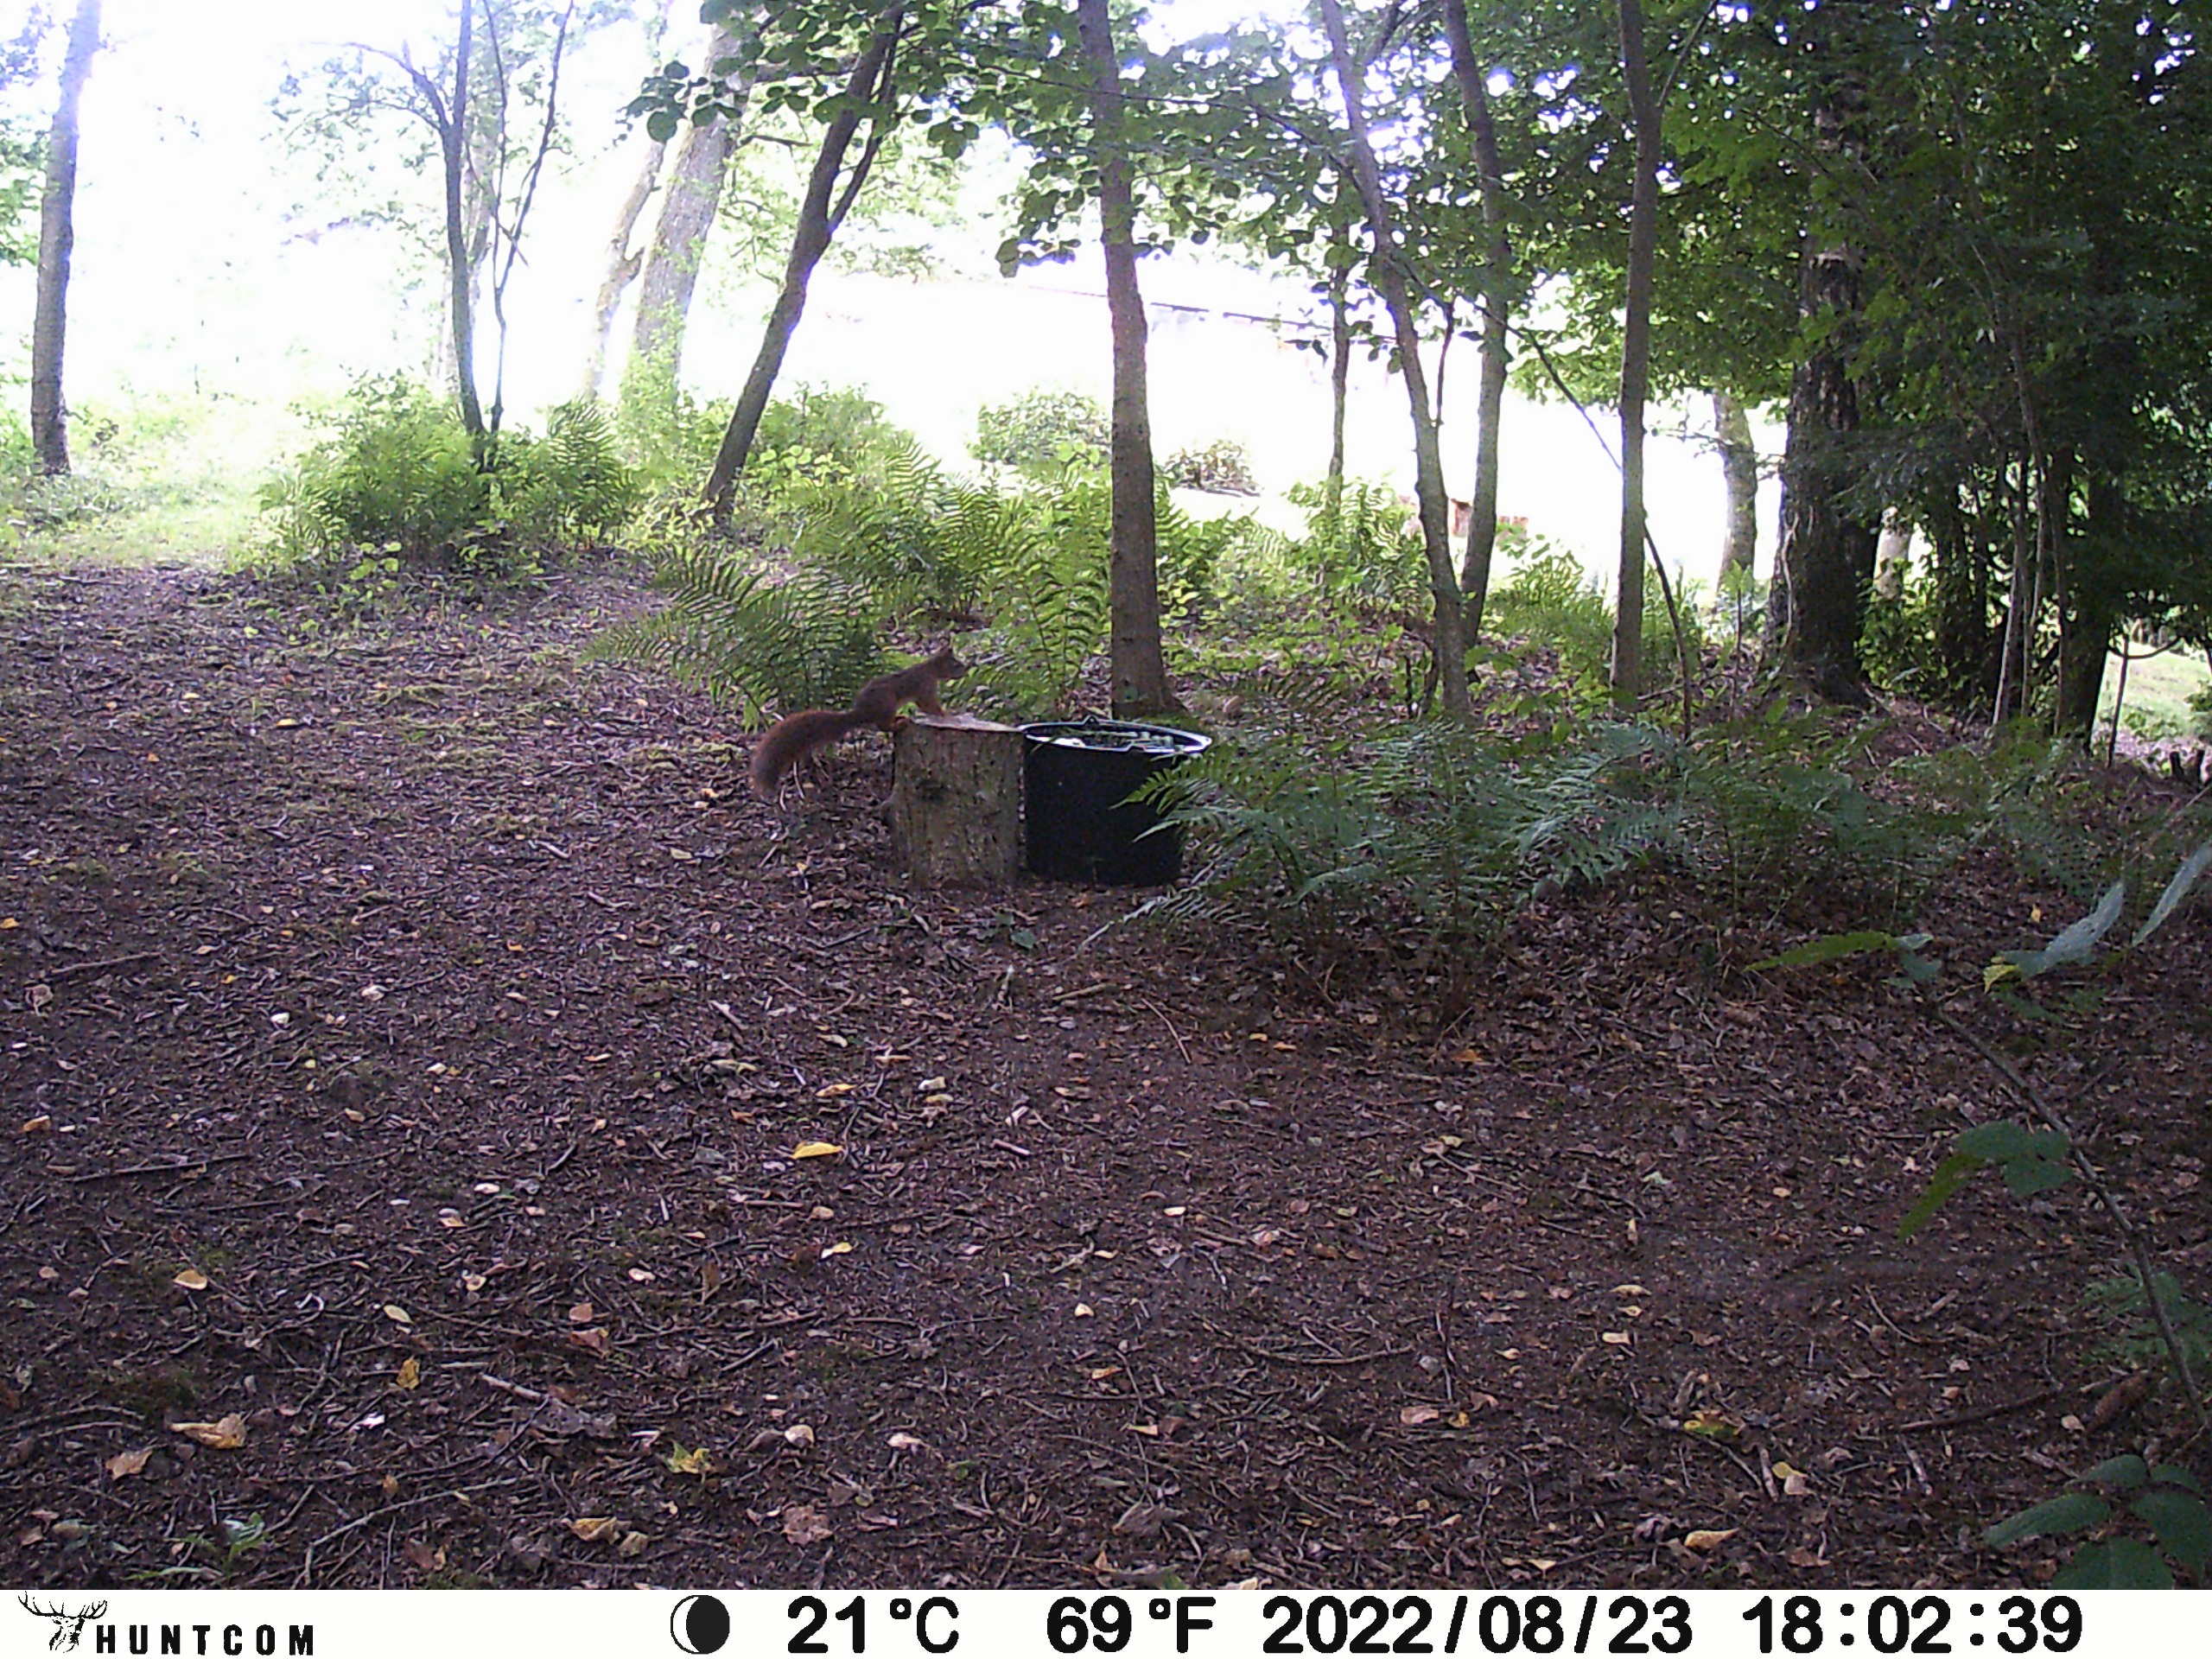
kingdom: Animalia
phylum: Chordata
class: Mammalia
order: Rodentia
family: Sciuridae
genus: Sciurus
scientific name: Sciurus vulgaris
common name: Egern
